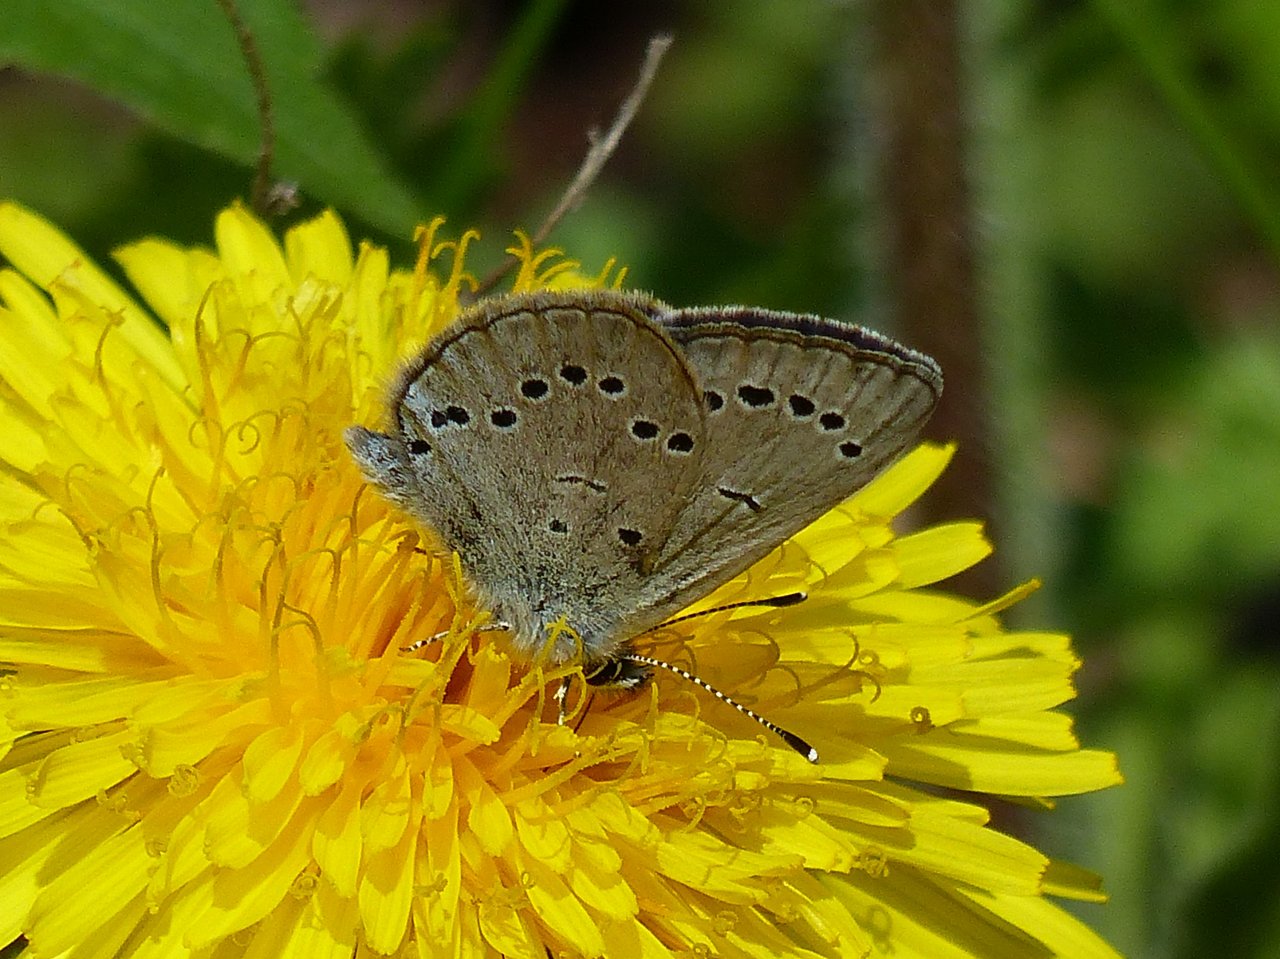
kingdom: Animalia
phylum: Arthropoda
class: Insecta
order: Lepidoptera
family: Lycaenidae
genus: Glaucopsyche
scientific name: Glaucopsyche lygdamus
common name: Silvery Blue
